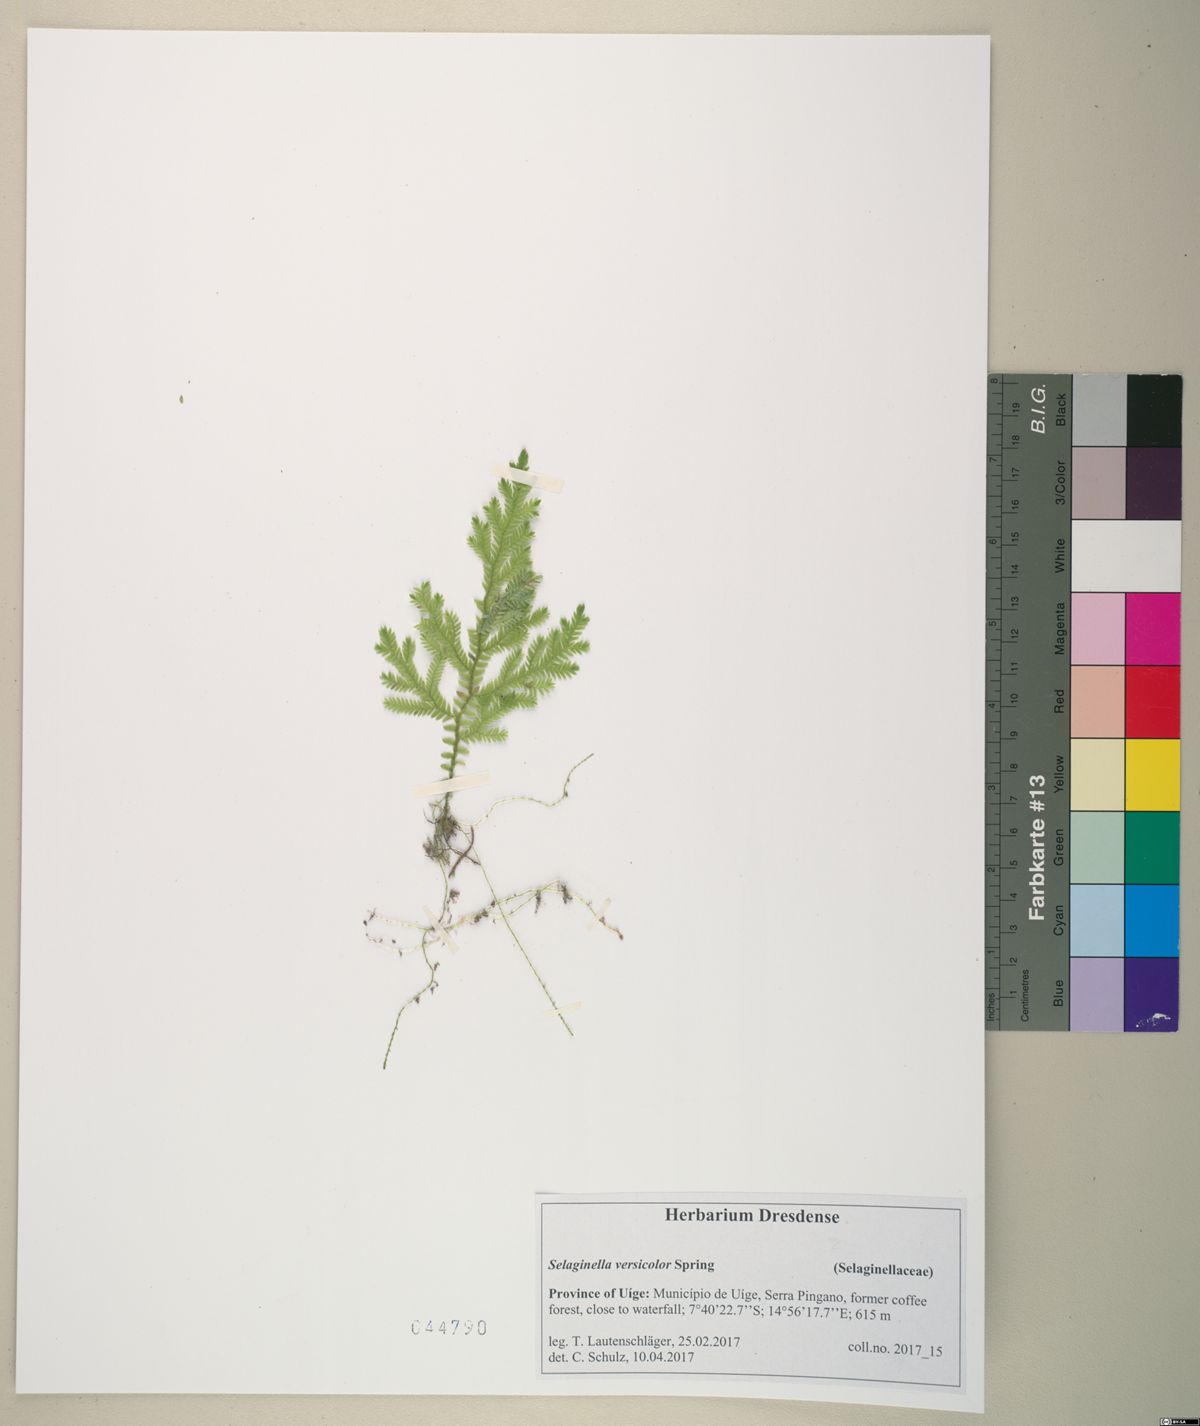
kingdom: Plantae
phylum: Tracheophyta
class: Lycopodiopsida
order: Selaginellales
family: Selaginellaceae
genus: Selaginella
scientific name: Selaginella versicolor
